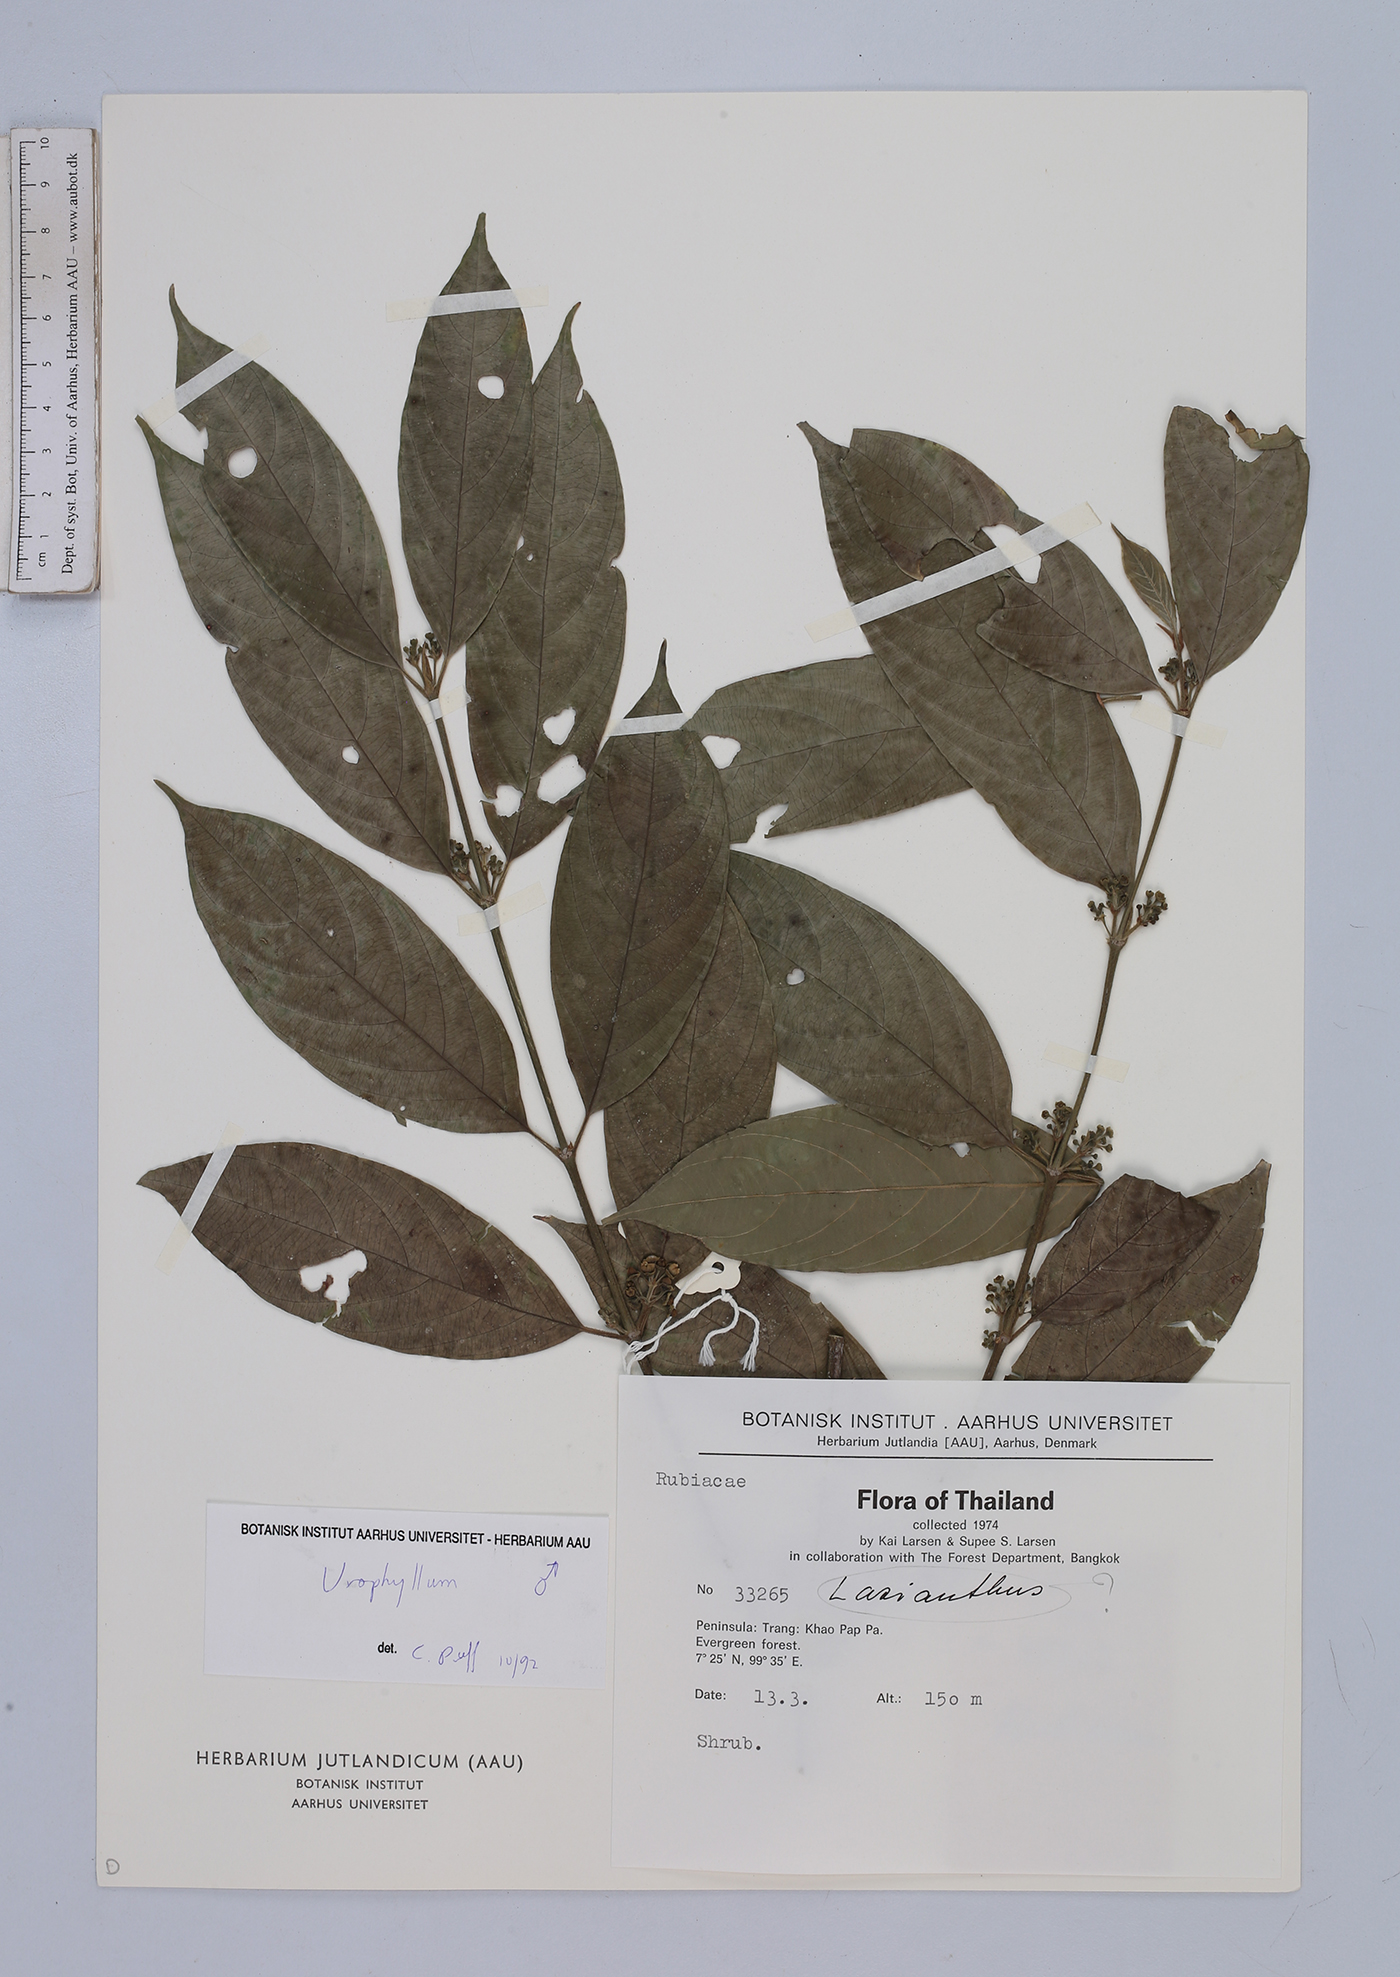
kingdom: Plantae
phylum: Tracheophyta
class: Magnoliopsida
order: Gentianales
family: Rubiaceae
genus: Urophyllum
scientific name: Urophyllum
